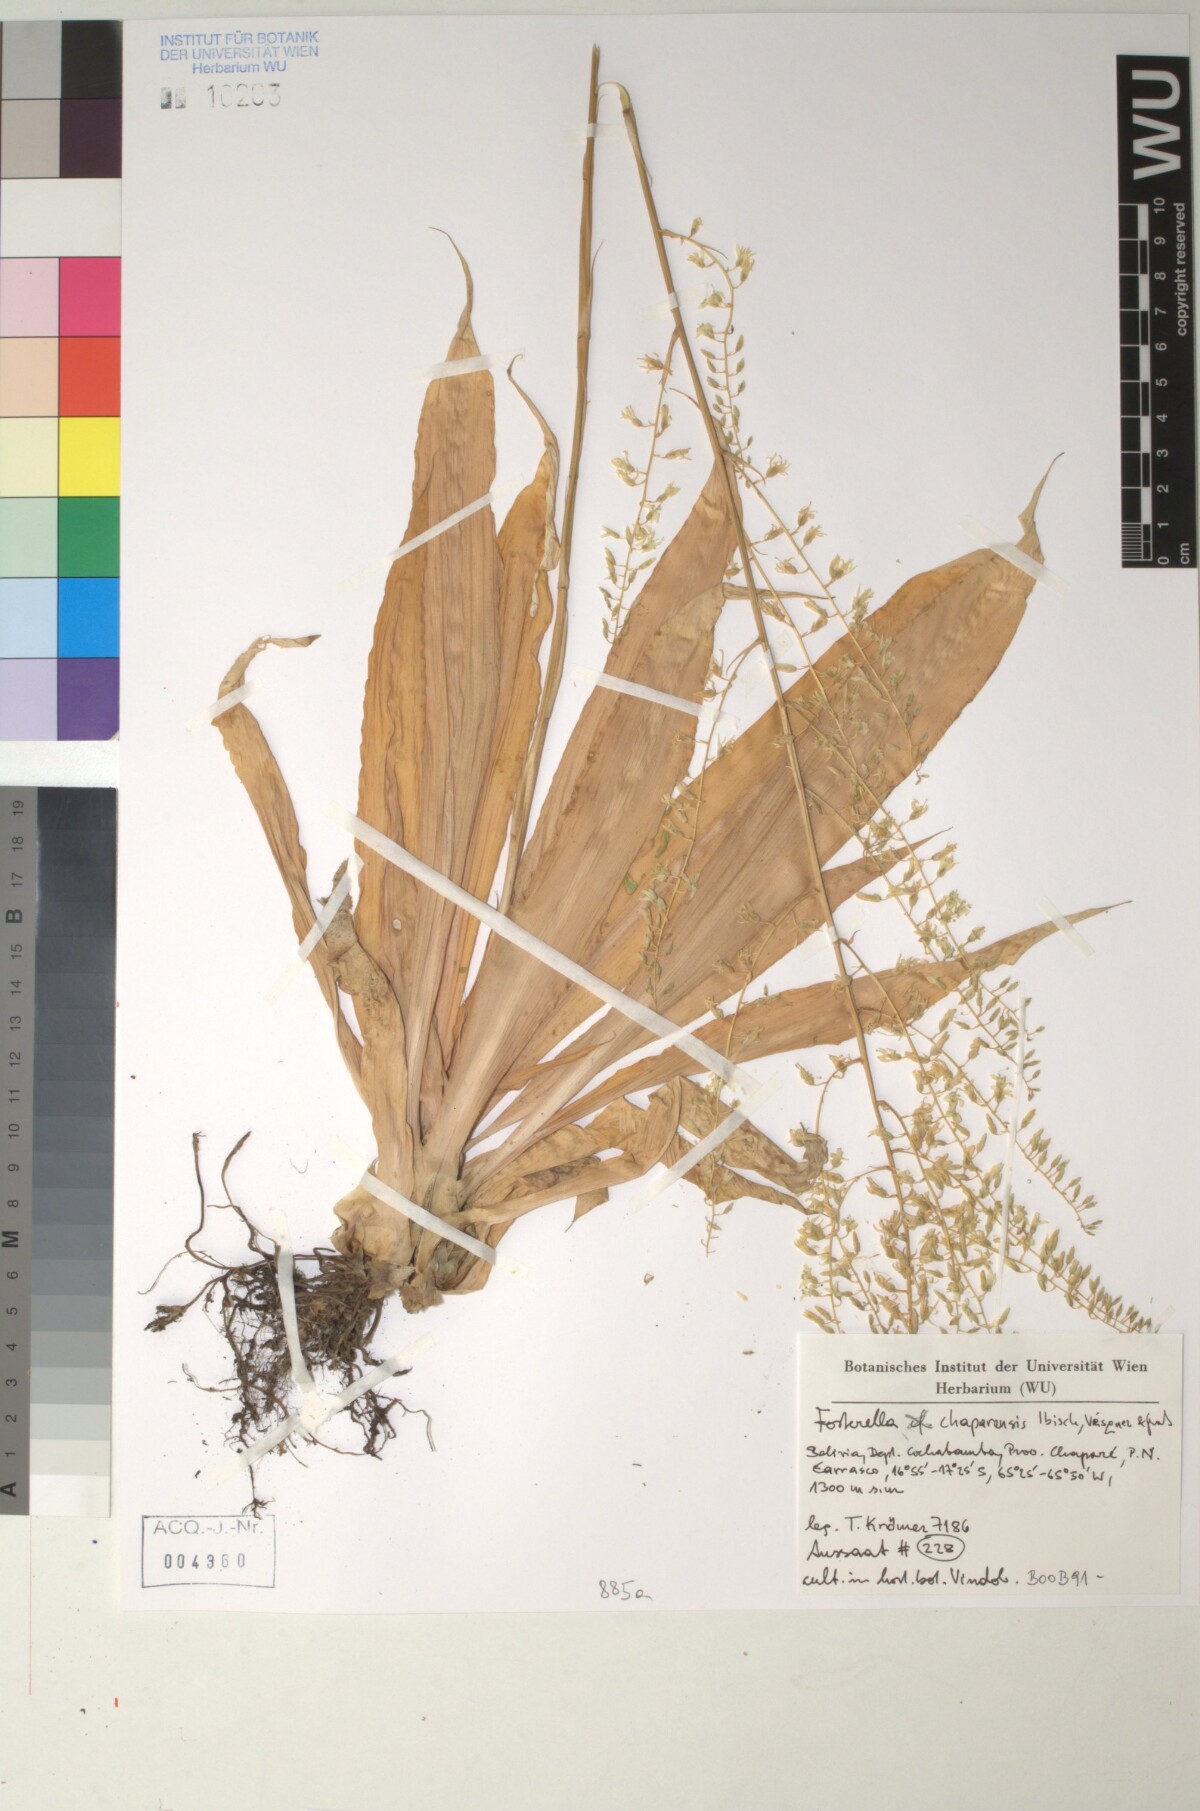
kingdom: Plantae
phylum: Tracheophyta
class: Liliopsida
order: Poales
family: Bromeliaceae
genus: Fosterella
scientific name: Fosterella chaparensis
